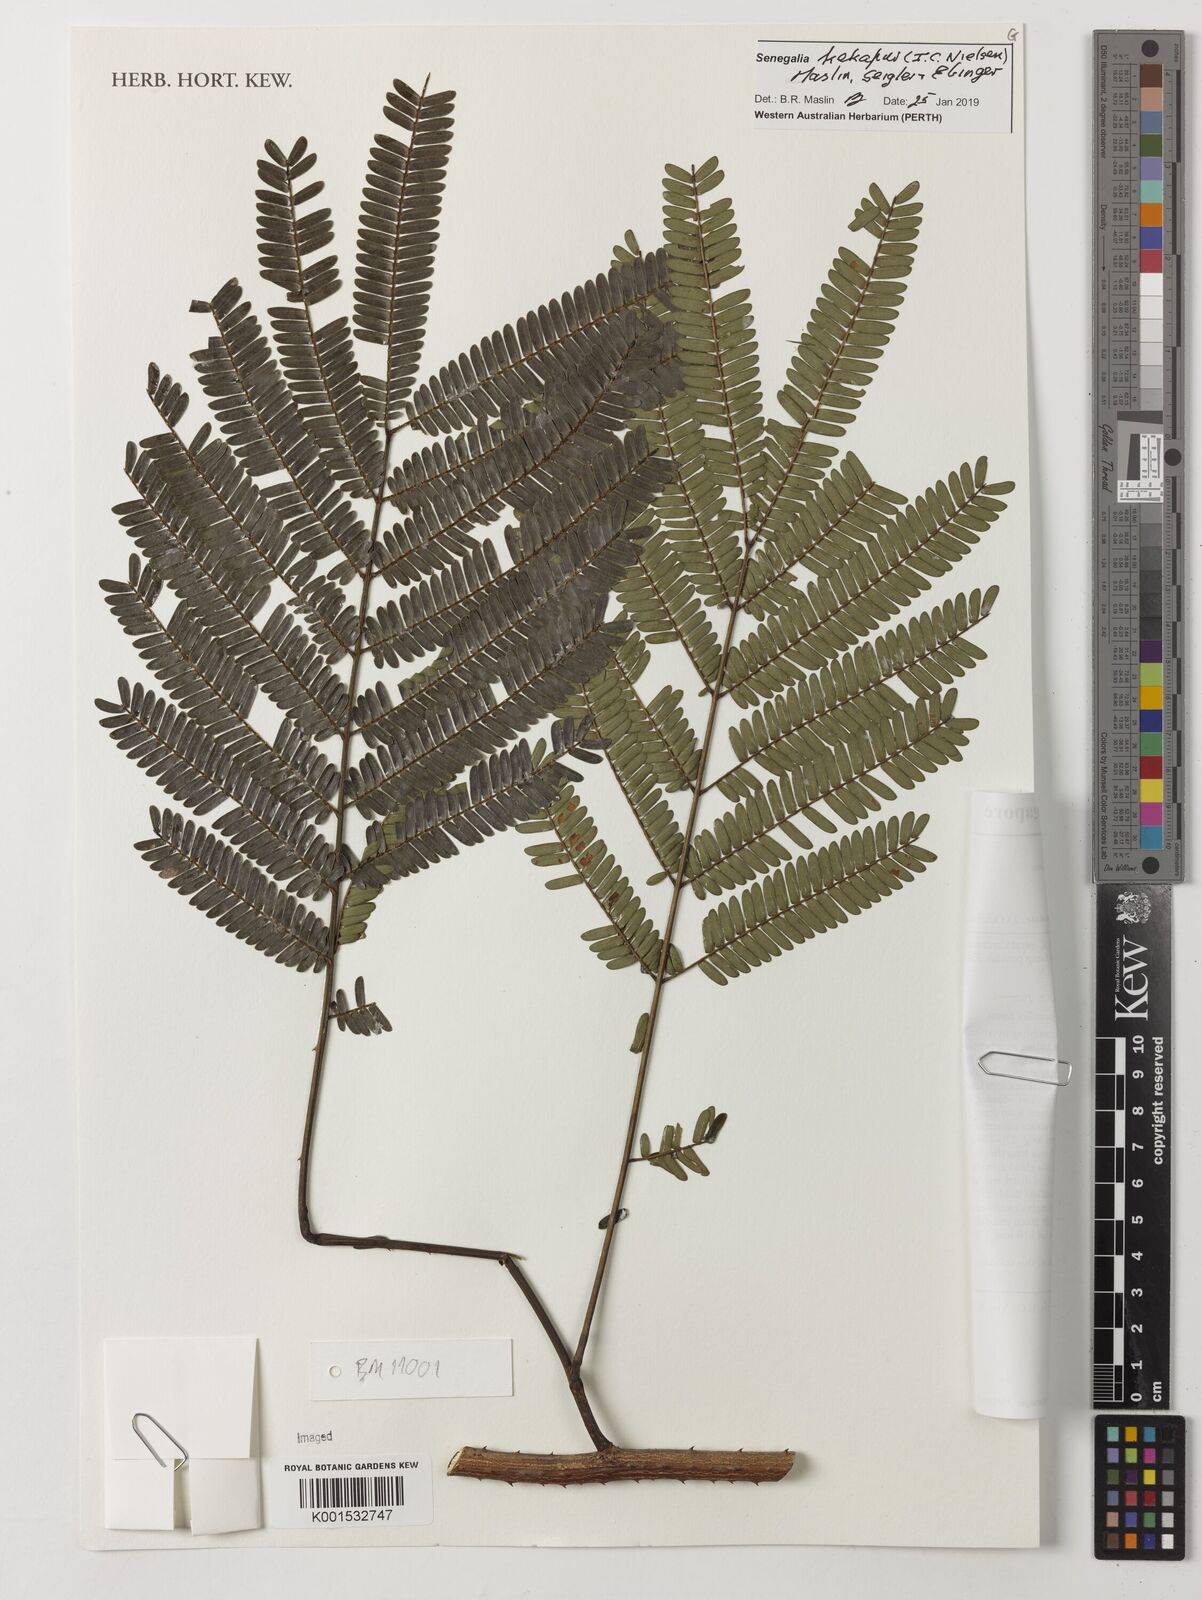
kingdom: Plantae
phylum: Tracheophyta
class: Magnoliopsida
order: Fabales
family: Fabaceae
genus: Senegalia
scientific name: Senegalia kekapur
